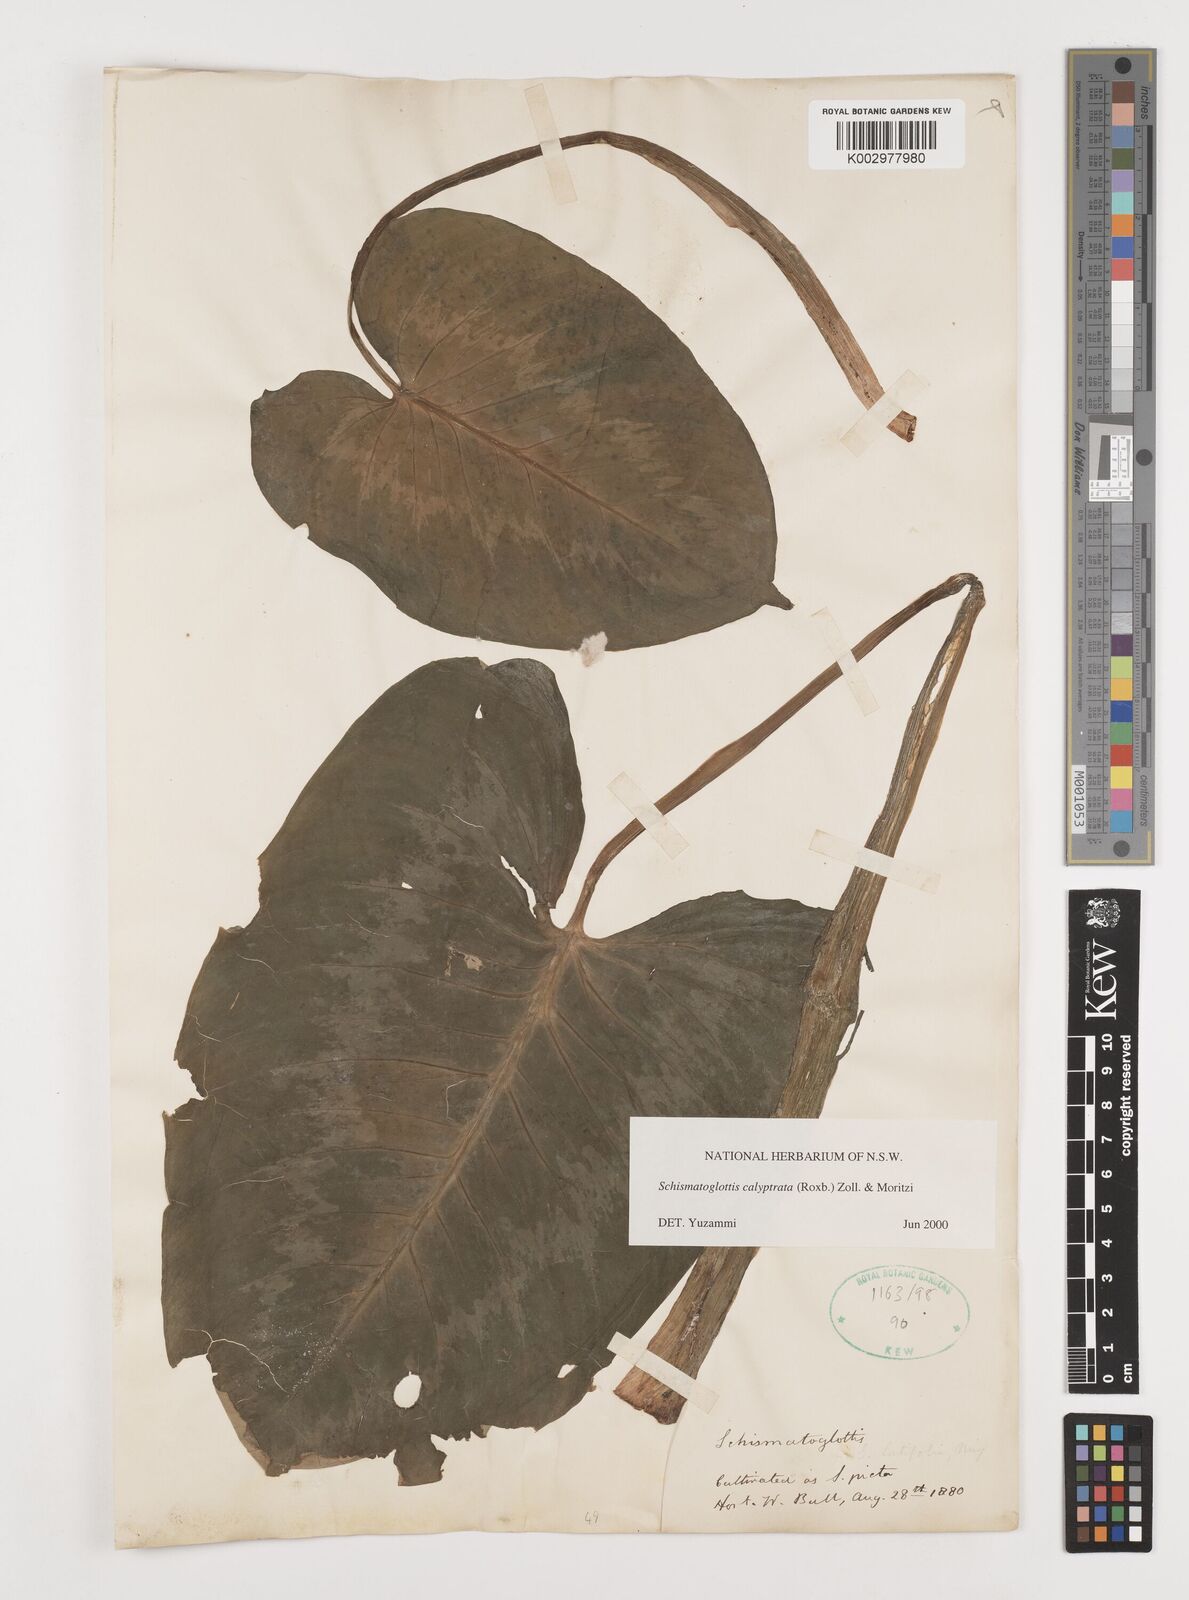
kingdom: Plantae
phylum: Tracheophyta
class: Liliopsida
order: Alismatales
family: Araceae
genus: Schismatoglottis
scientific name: Schismatoglottis calyptrata
